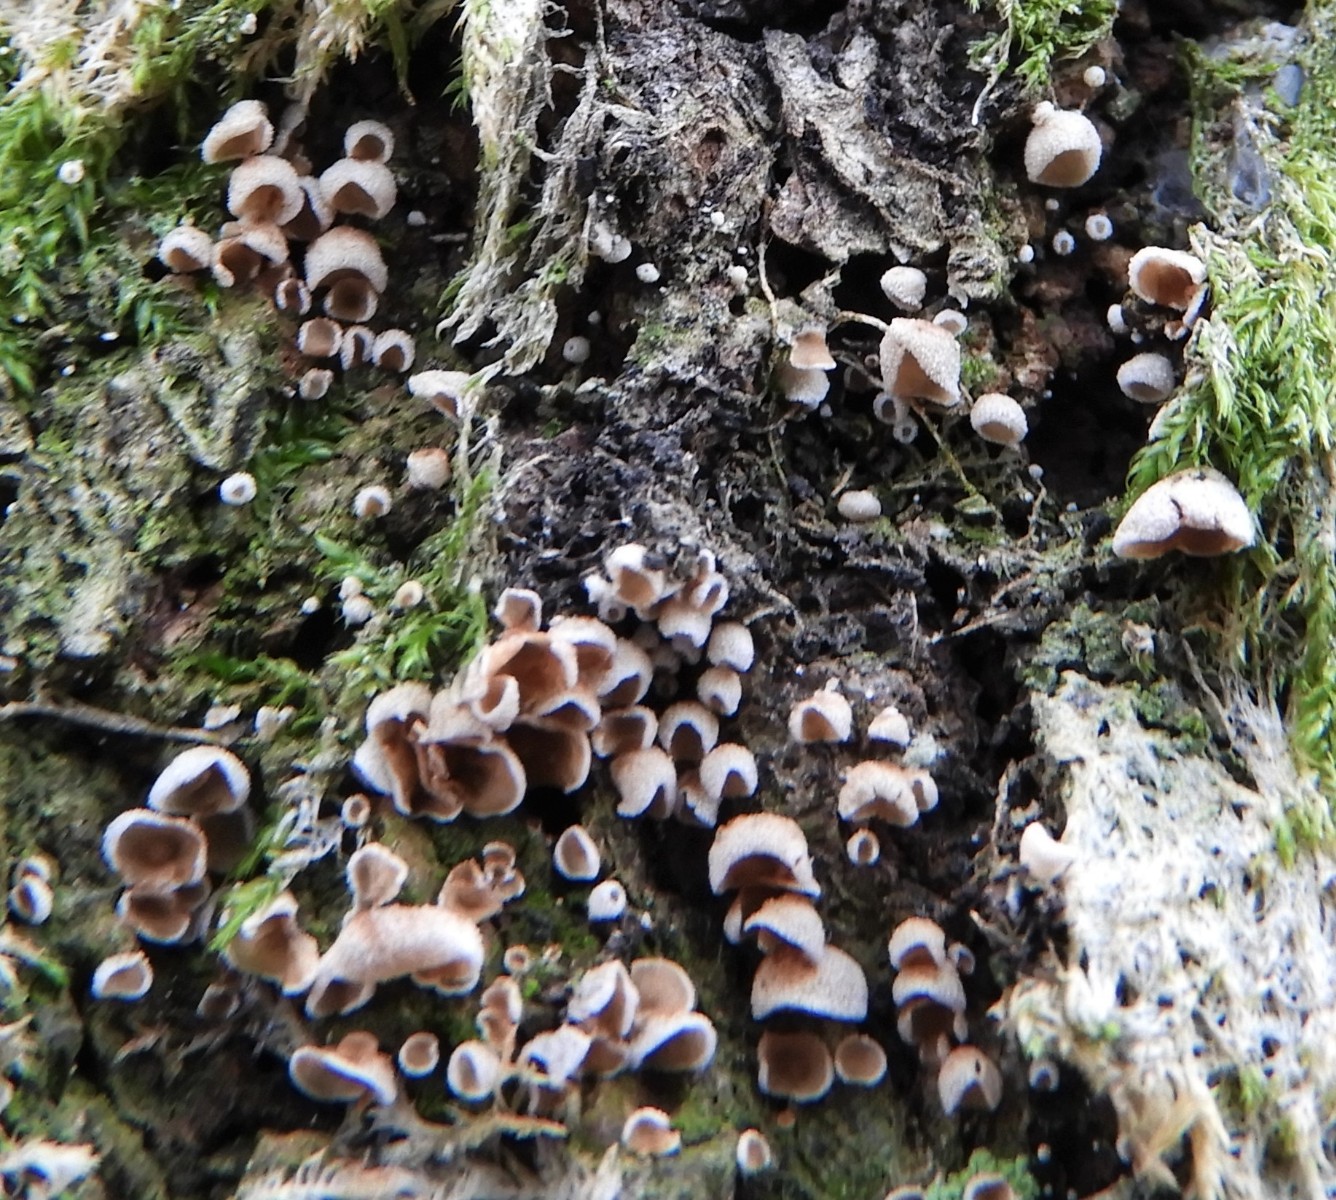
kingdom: Fungi
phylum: Basidiomycota
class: Agaricomycetes
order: Agaricales
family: Chromocyphellaceae
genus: Chromocyphella
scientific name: Chromocyphella muscicola
